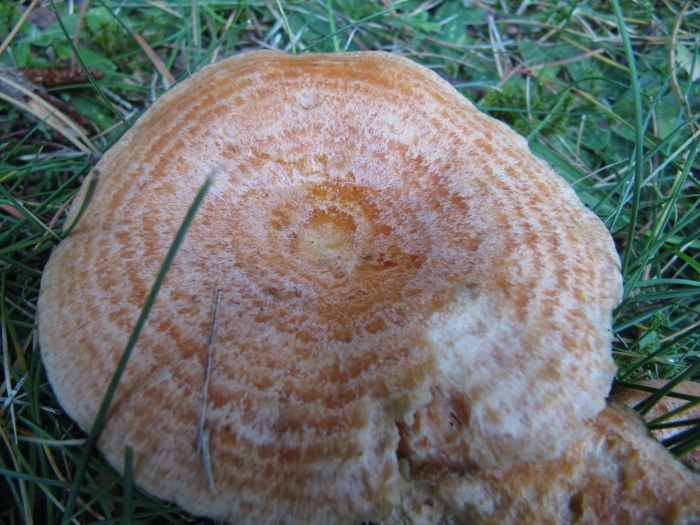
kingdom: Fungi
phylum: Basidiomycota
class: Agaricomycetes
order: Russulales
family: Russulaceae
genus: Lactarius
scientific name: Lactarius deliciosus
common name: velsmagende mælkehat
